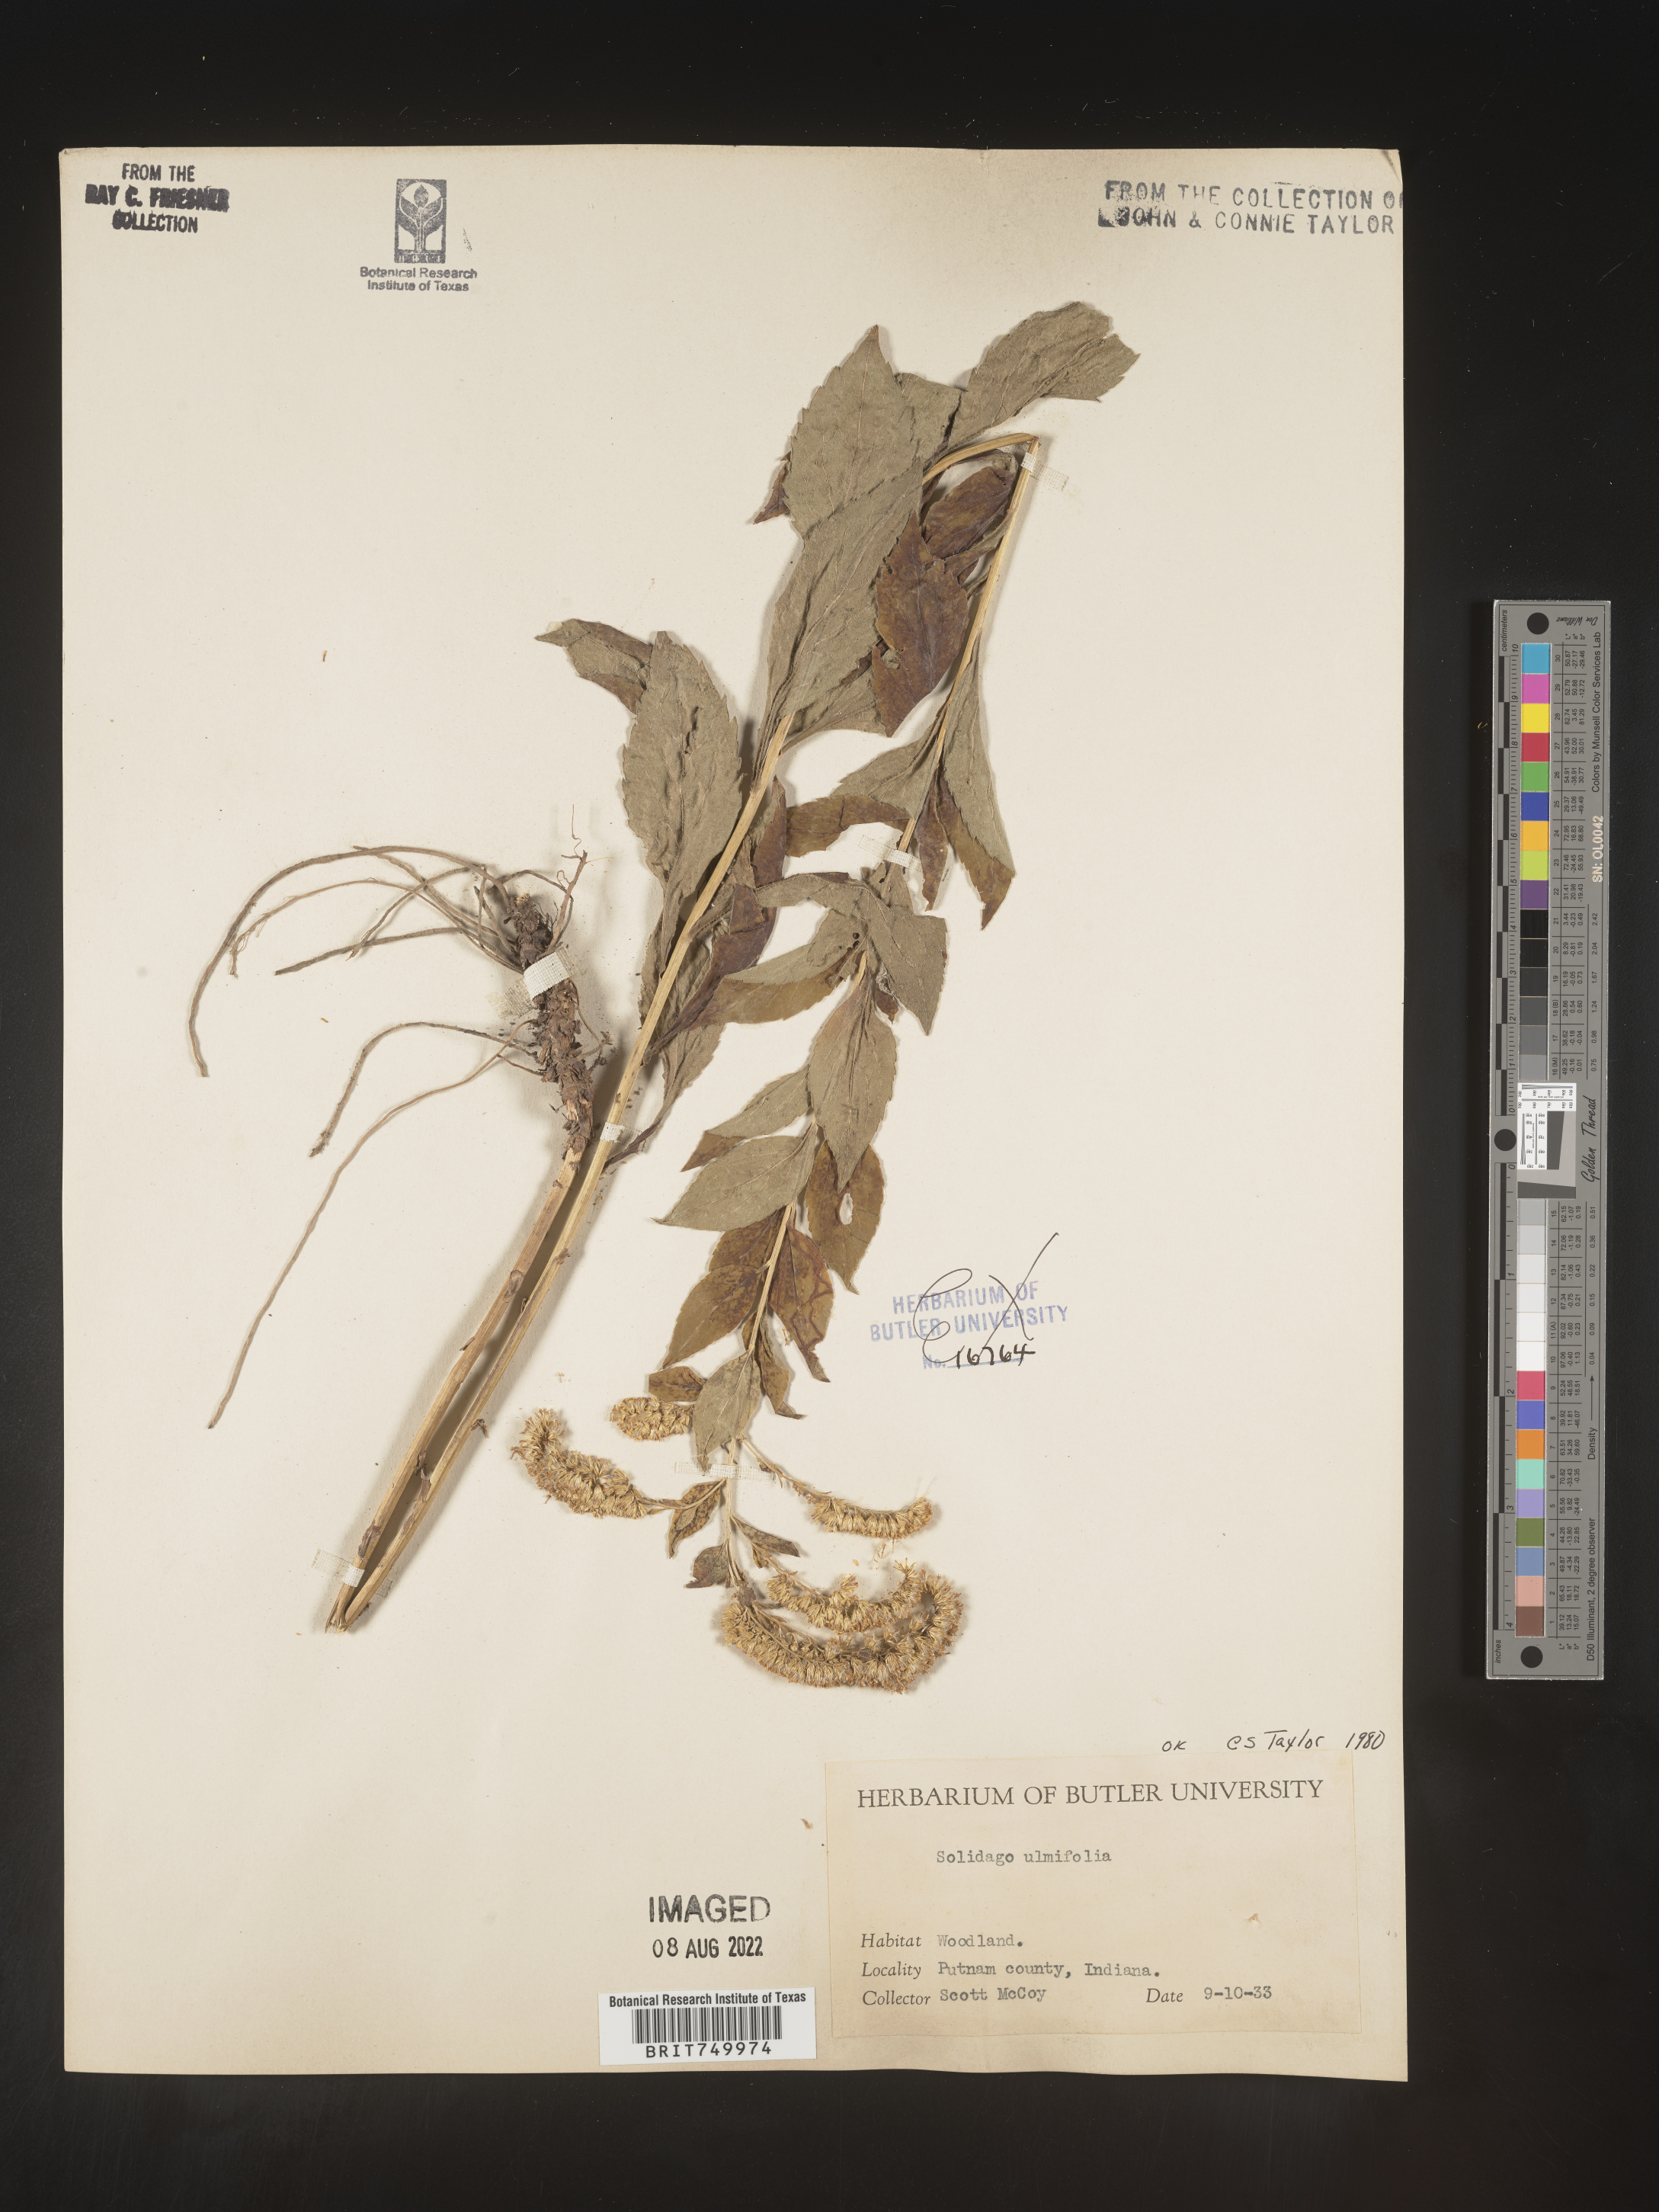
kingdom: Plantae
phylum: Tracheophyta
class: Magnoliopsida
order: Asterales
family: Asteraceae
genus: Solidago
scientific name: Solidago ulmifolia
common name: Elm-leaf goldenrod
